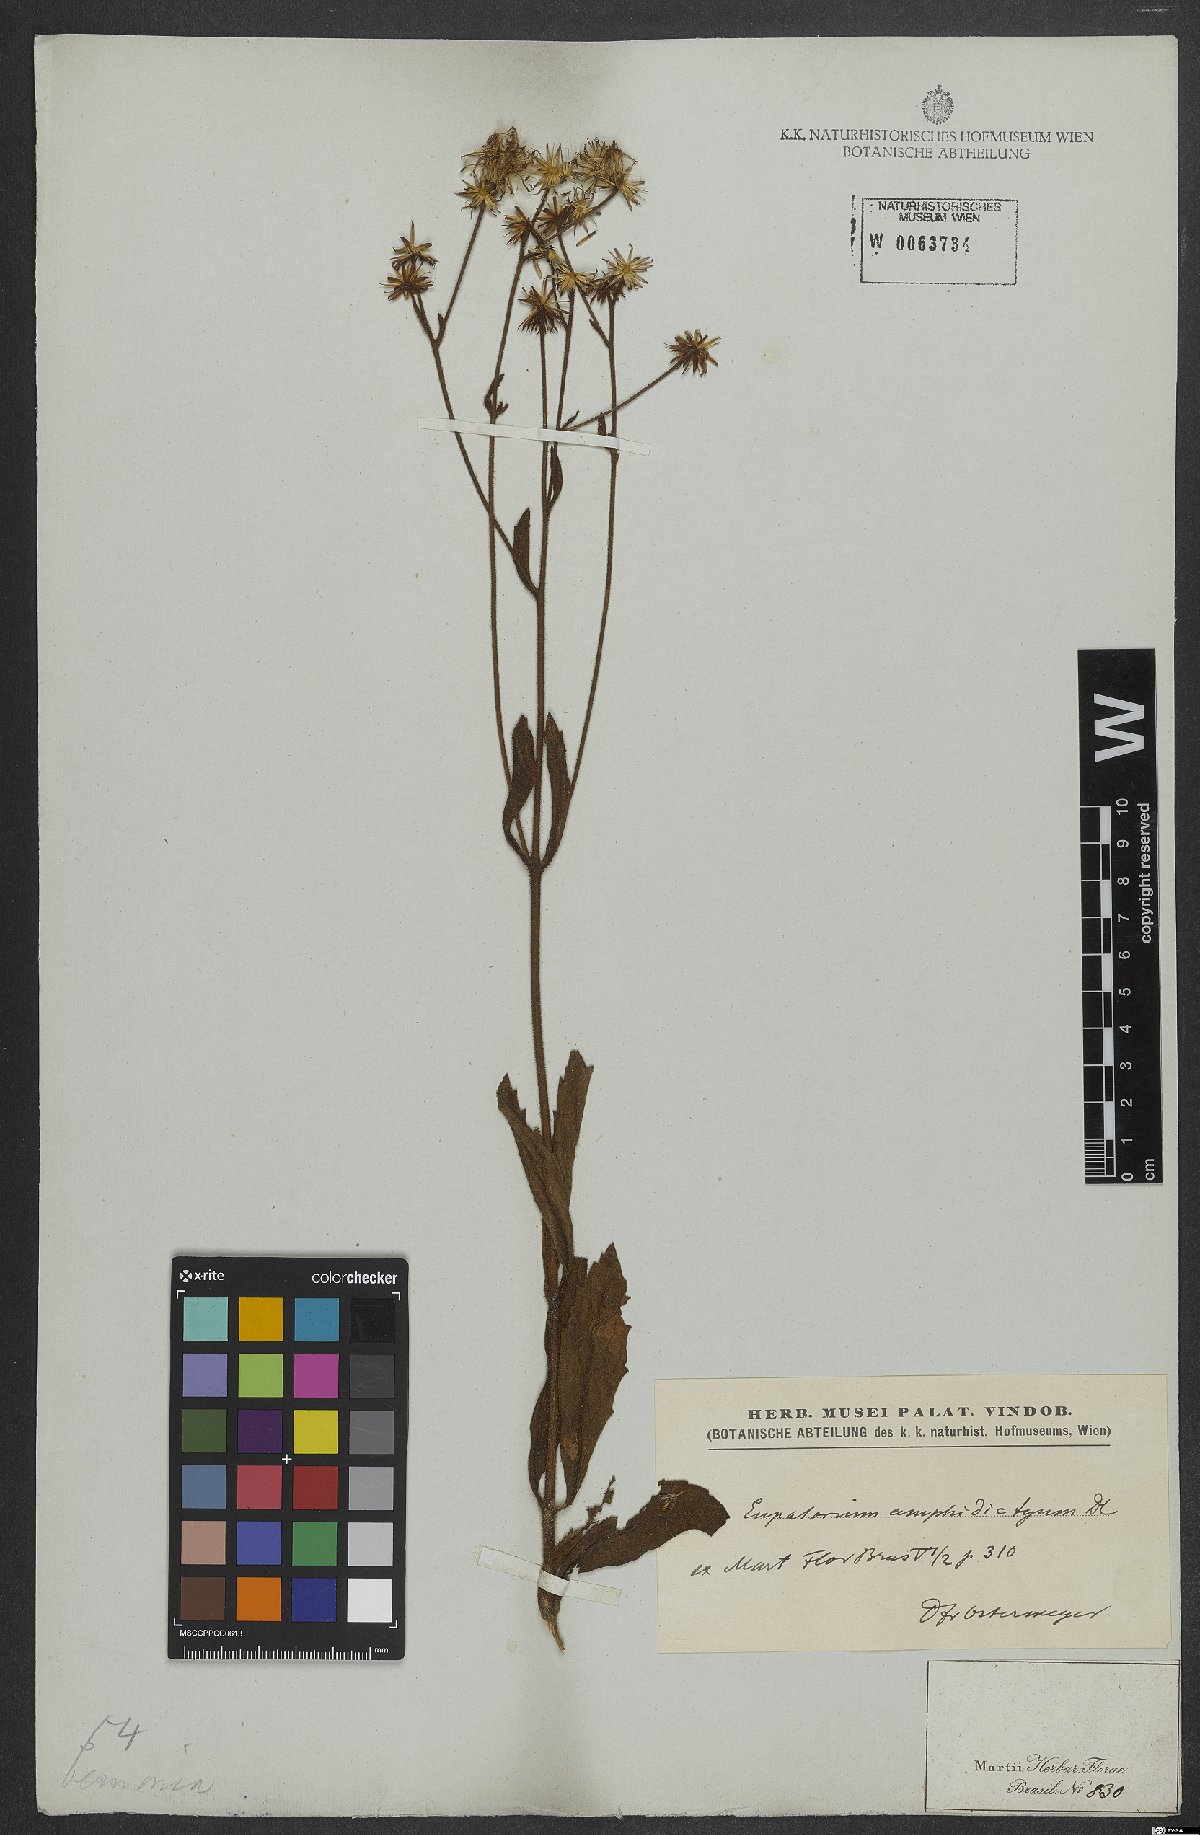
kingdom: Plantae
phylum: Tracheophyta
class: Magnoliopsida
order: Asterales
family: Asteraceae
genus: Heterocondylus
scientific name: Heterocondylus amphidictyus
